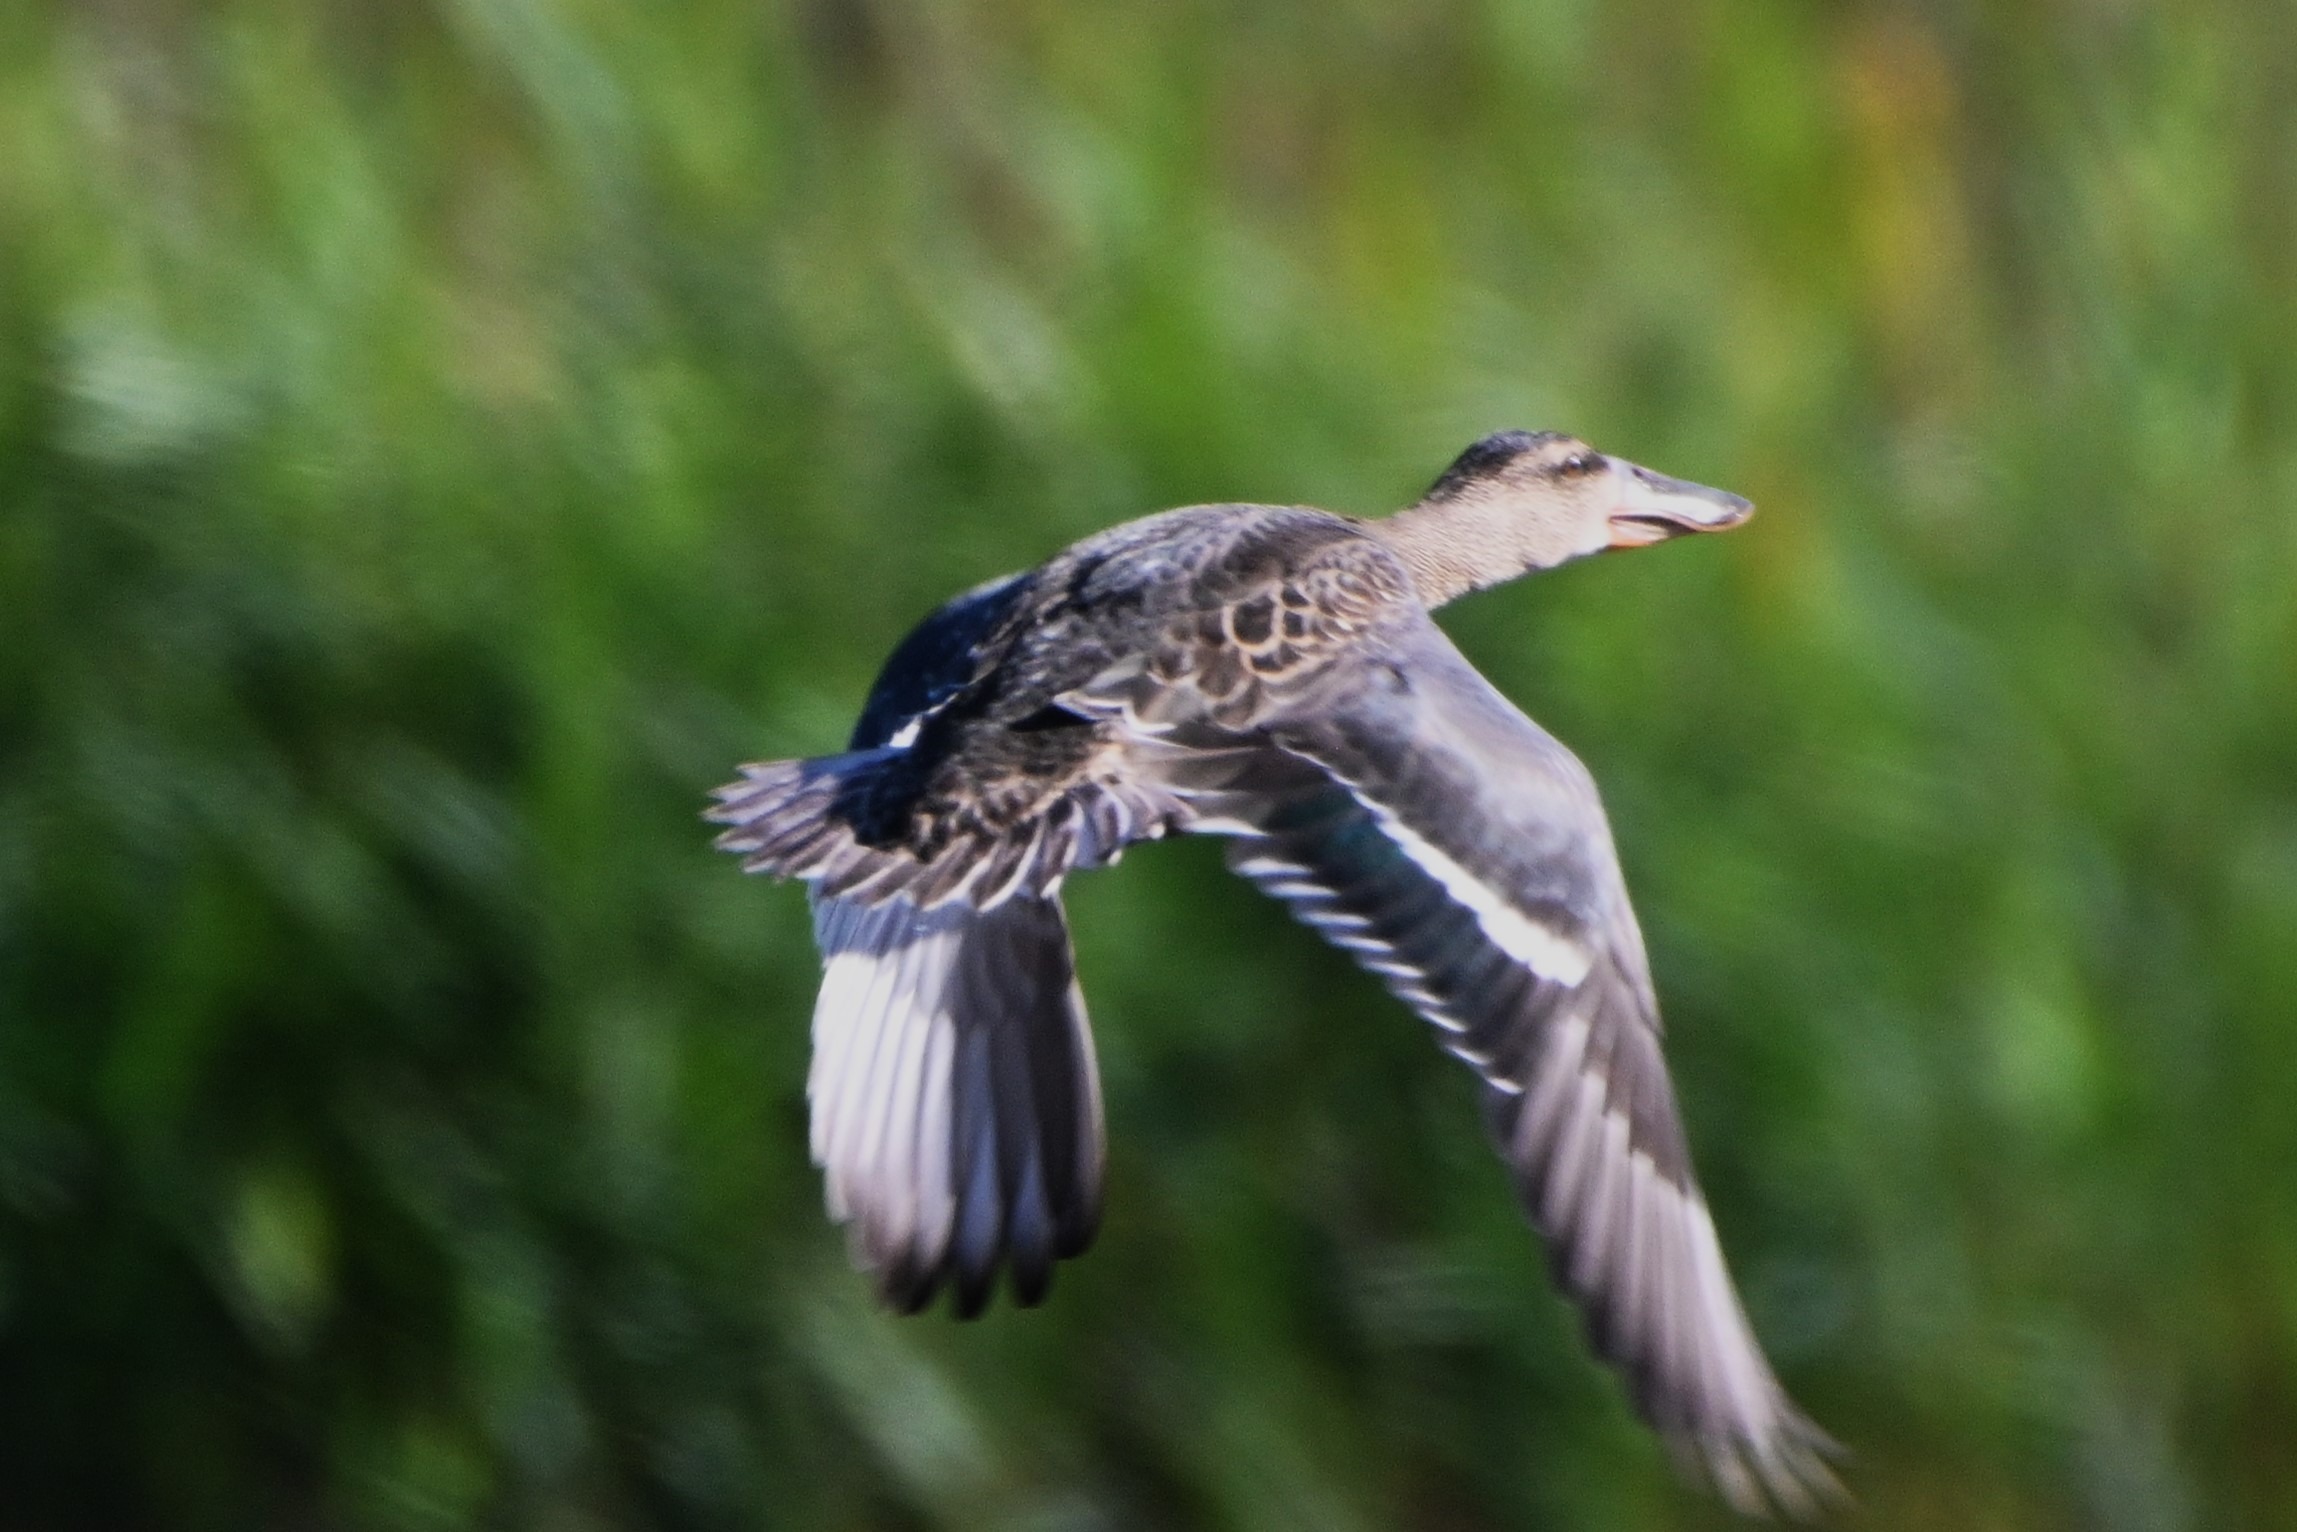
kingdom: Animalia
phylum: Chordata
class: Aves
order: Anseriformes
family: Anatidae
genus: Spatula
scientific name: Spatula clypeata
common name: Skeand
